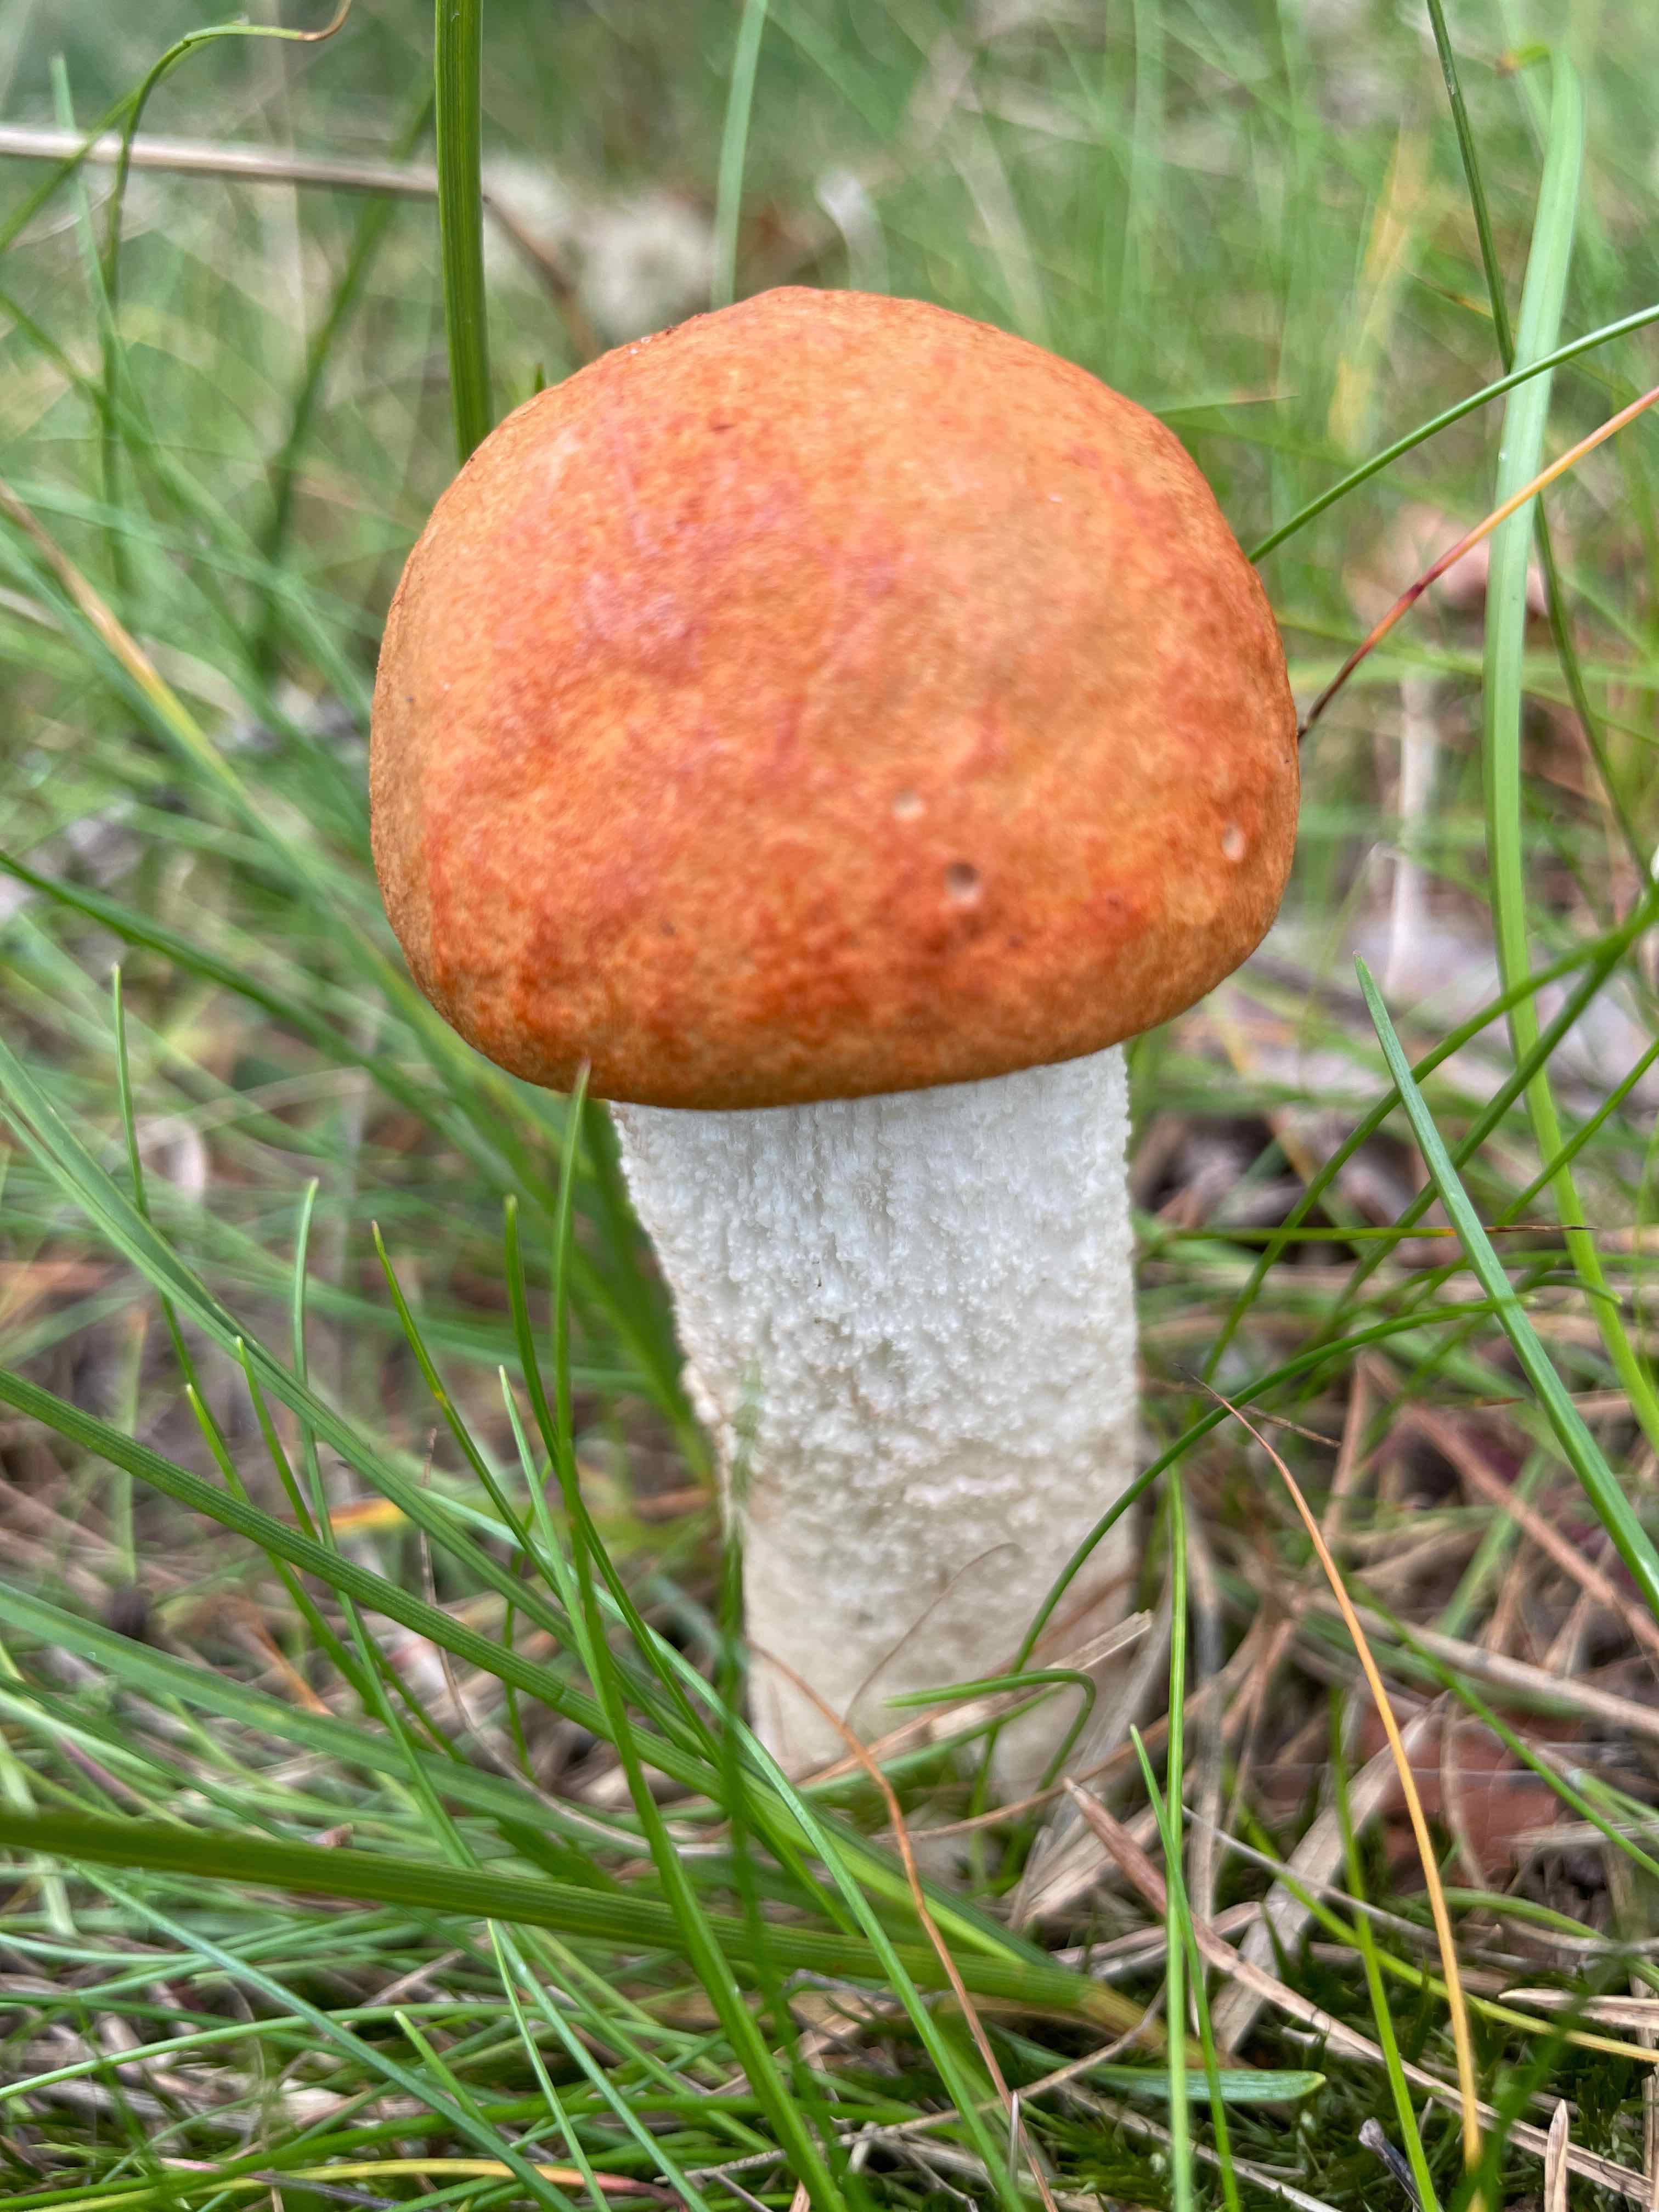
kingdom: Fungi
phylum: Basidiomycota
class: Agaricomycetes
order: Boletales
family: Boletaceae
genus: Leccinum
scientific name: Leccinum albostipitatum
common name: aspe-skælrørhat
